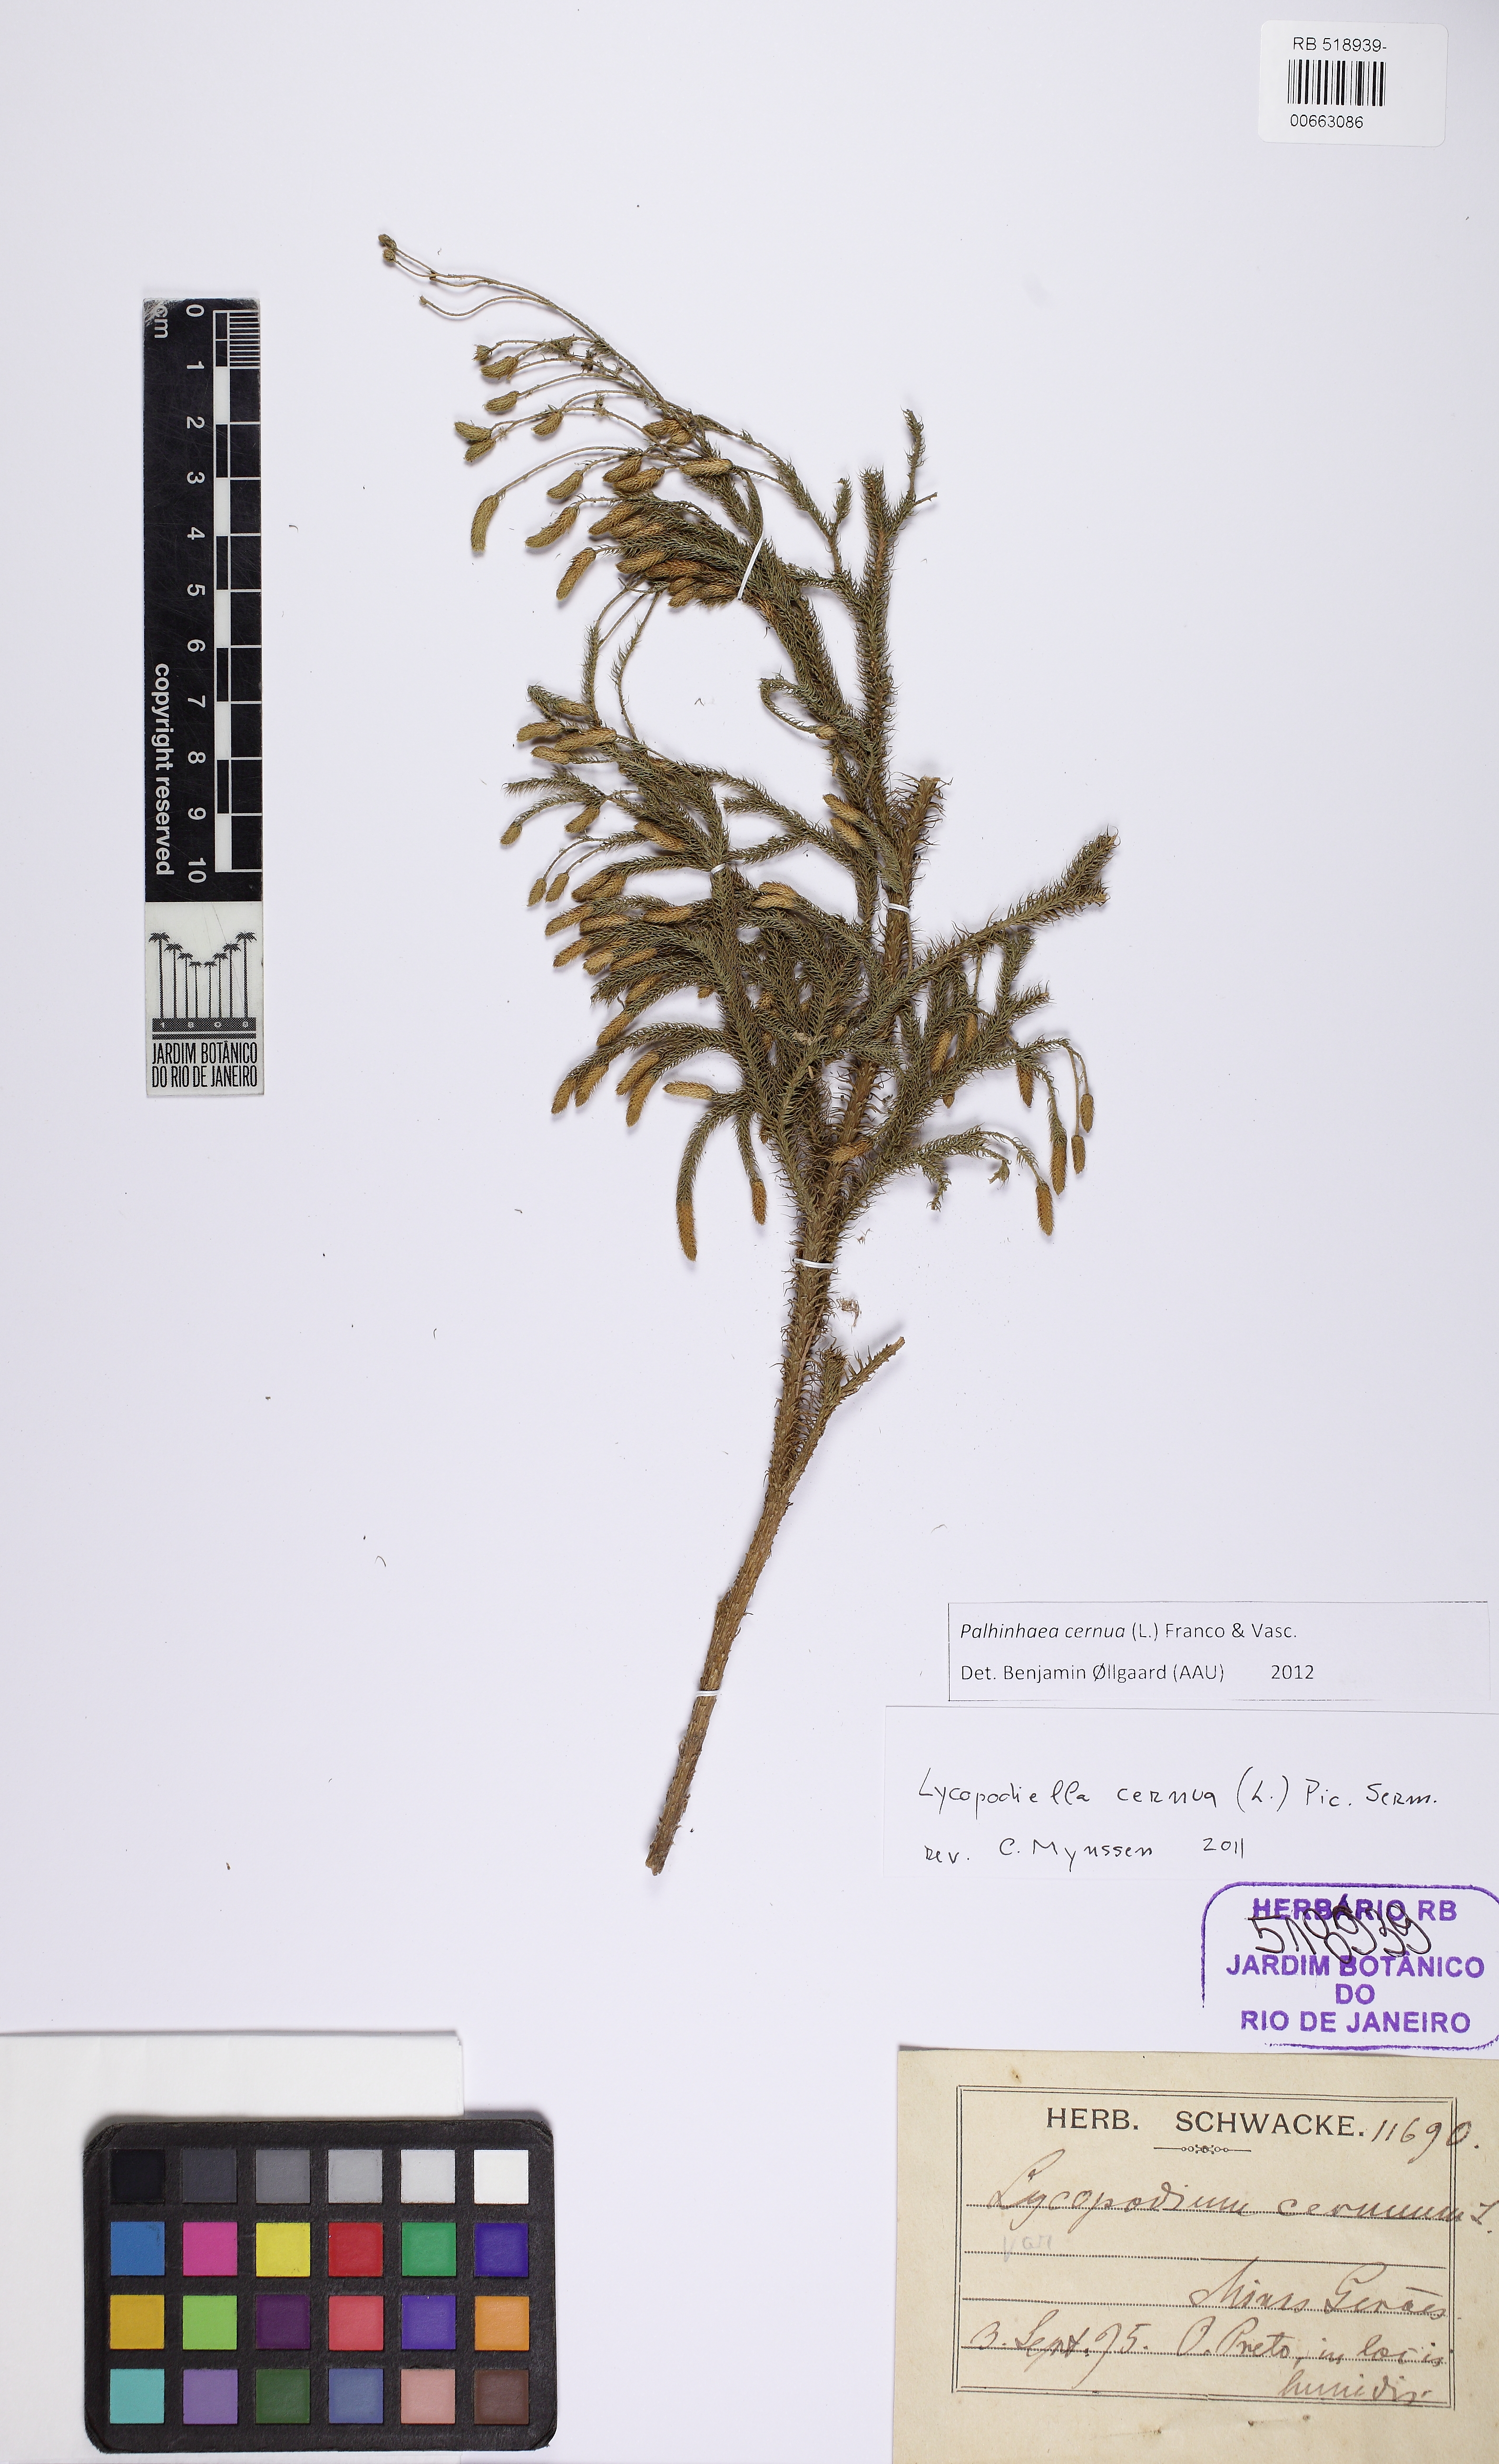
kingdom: Plantae
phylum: Tracheophyta
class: Lycopodiopsida
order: Lycopodiales
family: Lycopodiaceae
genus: Palhinhaea
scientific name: Palhinhaea cernua
